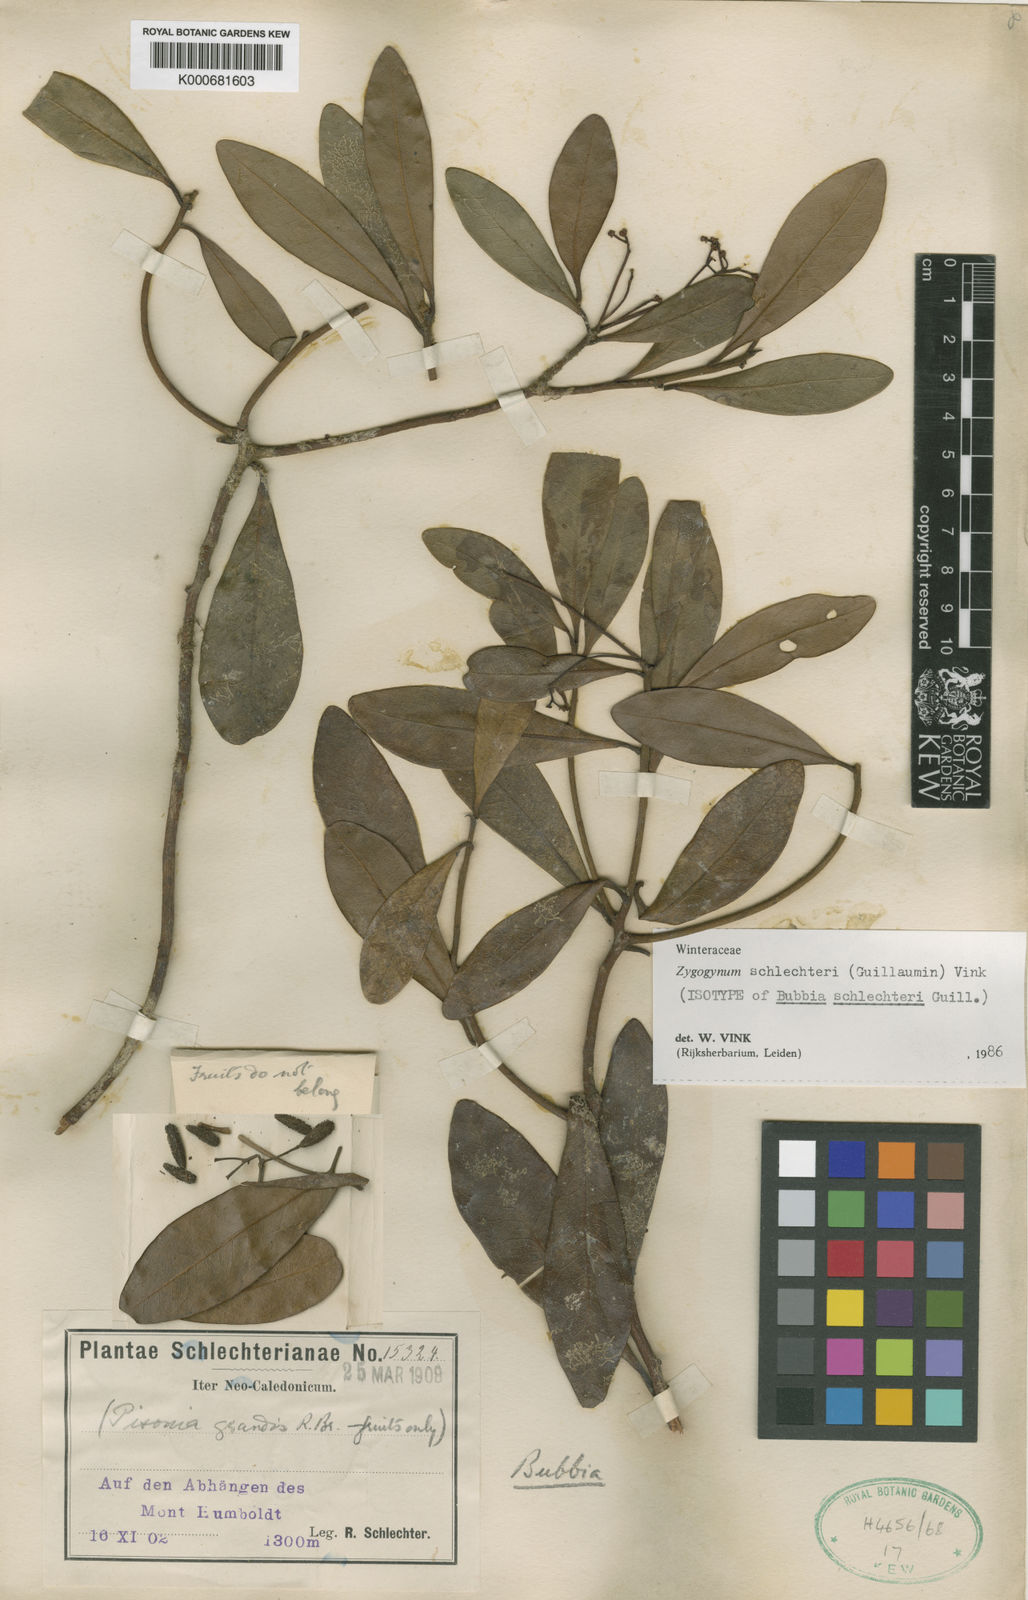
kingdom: Plantae
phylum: Tracheophyta
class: Magnoliopsida
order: Canellales
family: Winteraceae
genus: Zygogynum
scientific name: Zygogynum schlechteri
